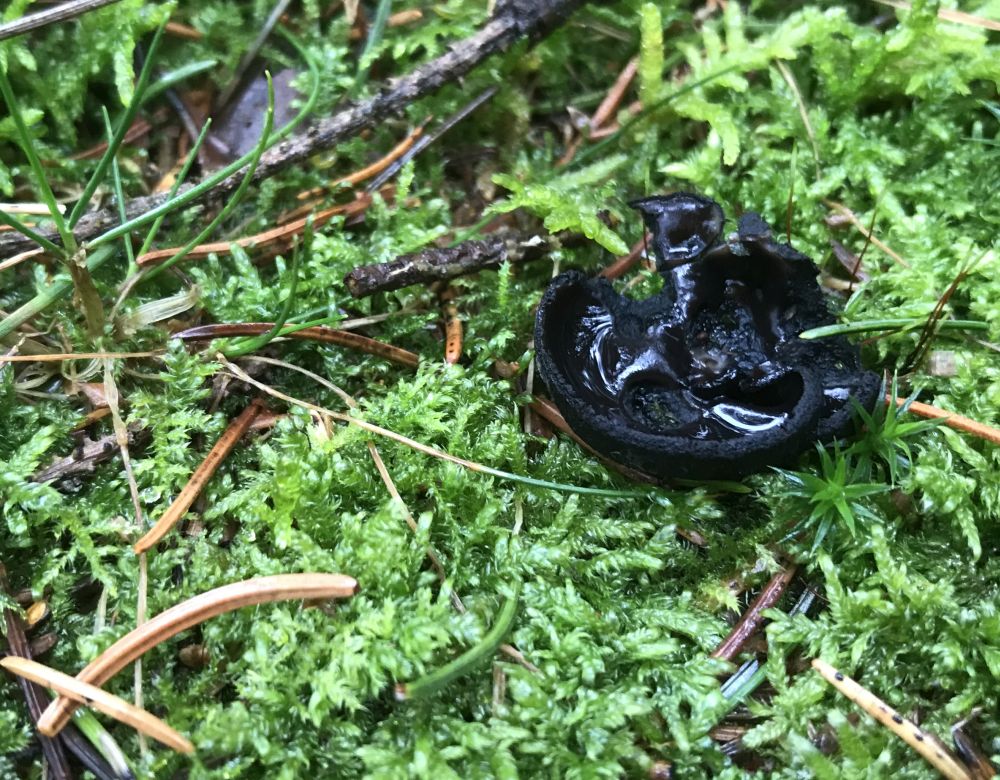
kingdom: Fungi
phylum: Ascomycota
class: Pezizomycetes
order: Pezizales
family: Sarcosomataceae
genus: Pseudoplectania
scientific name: Pseudoplectania nigrella
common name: almindelig sortbæger
